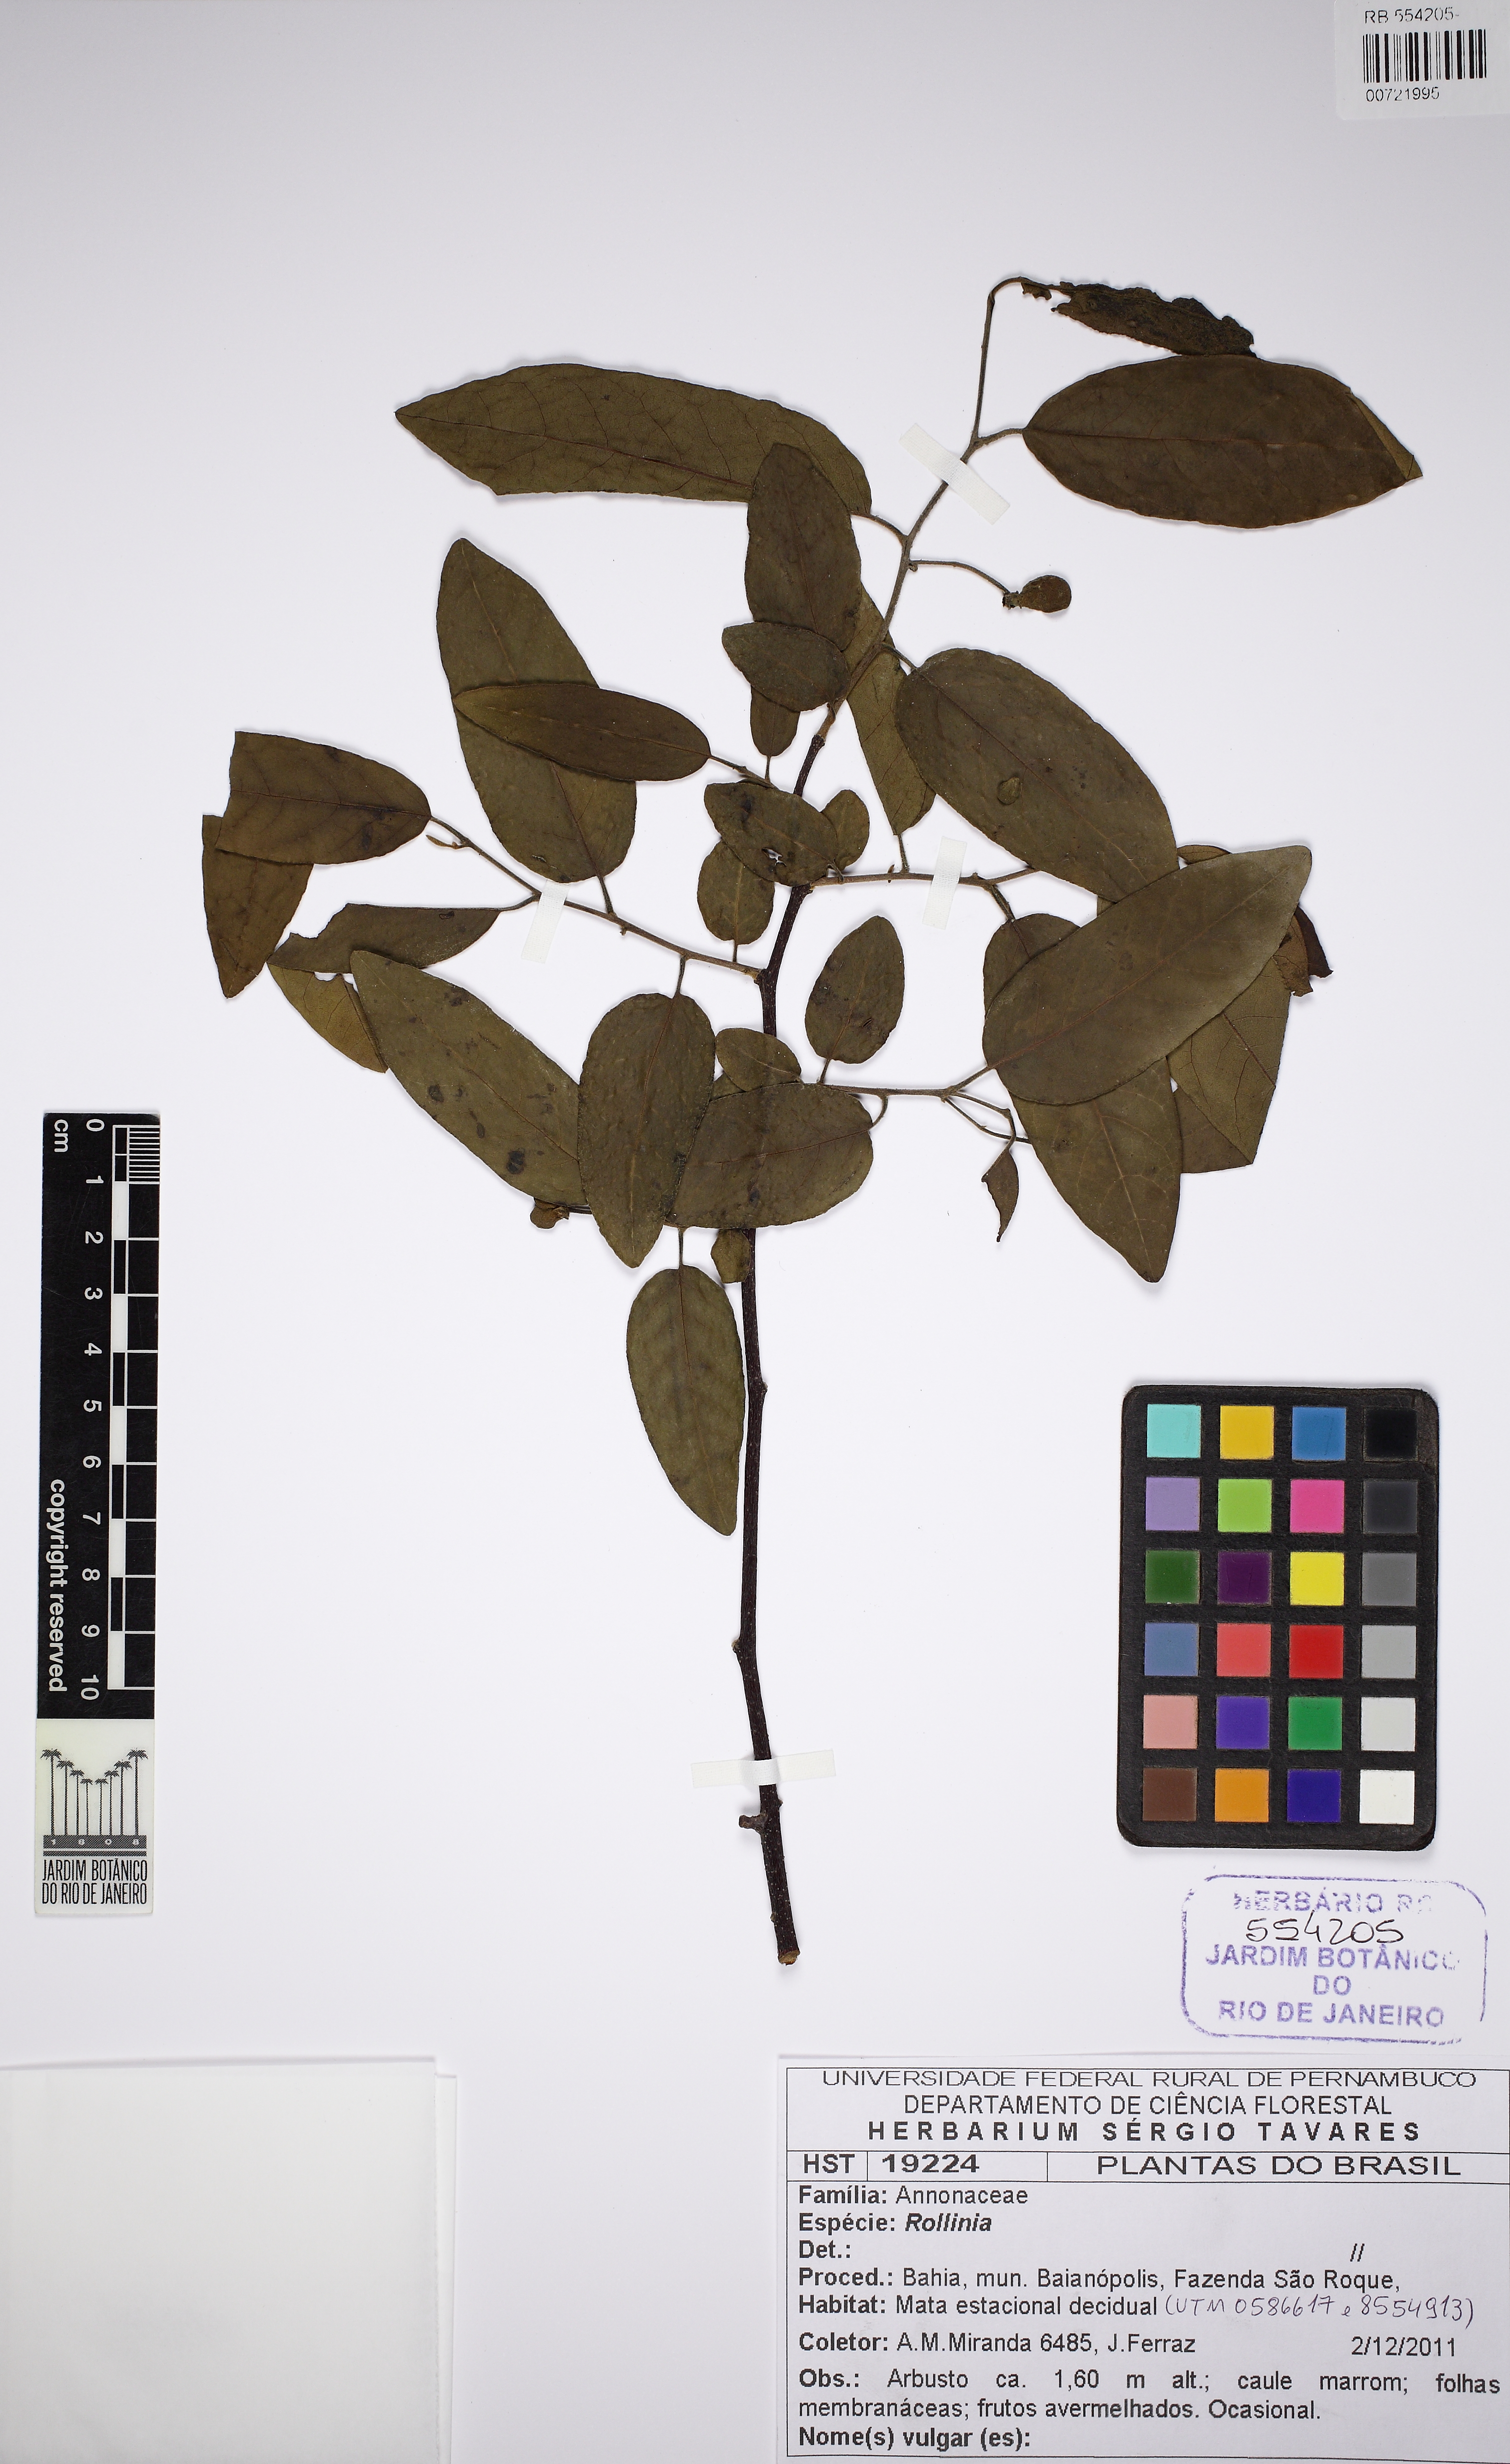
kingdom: Plantae
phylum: Tracheophyta
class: Magnoliopsida
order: Magnoliales
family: Annonaceae
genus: Annona
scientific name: Annona
